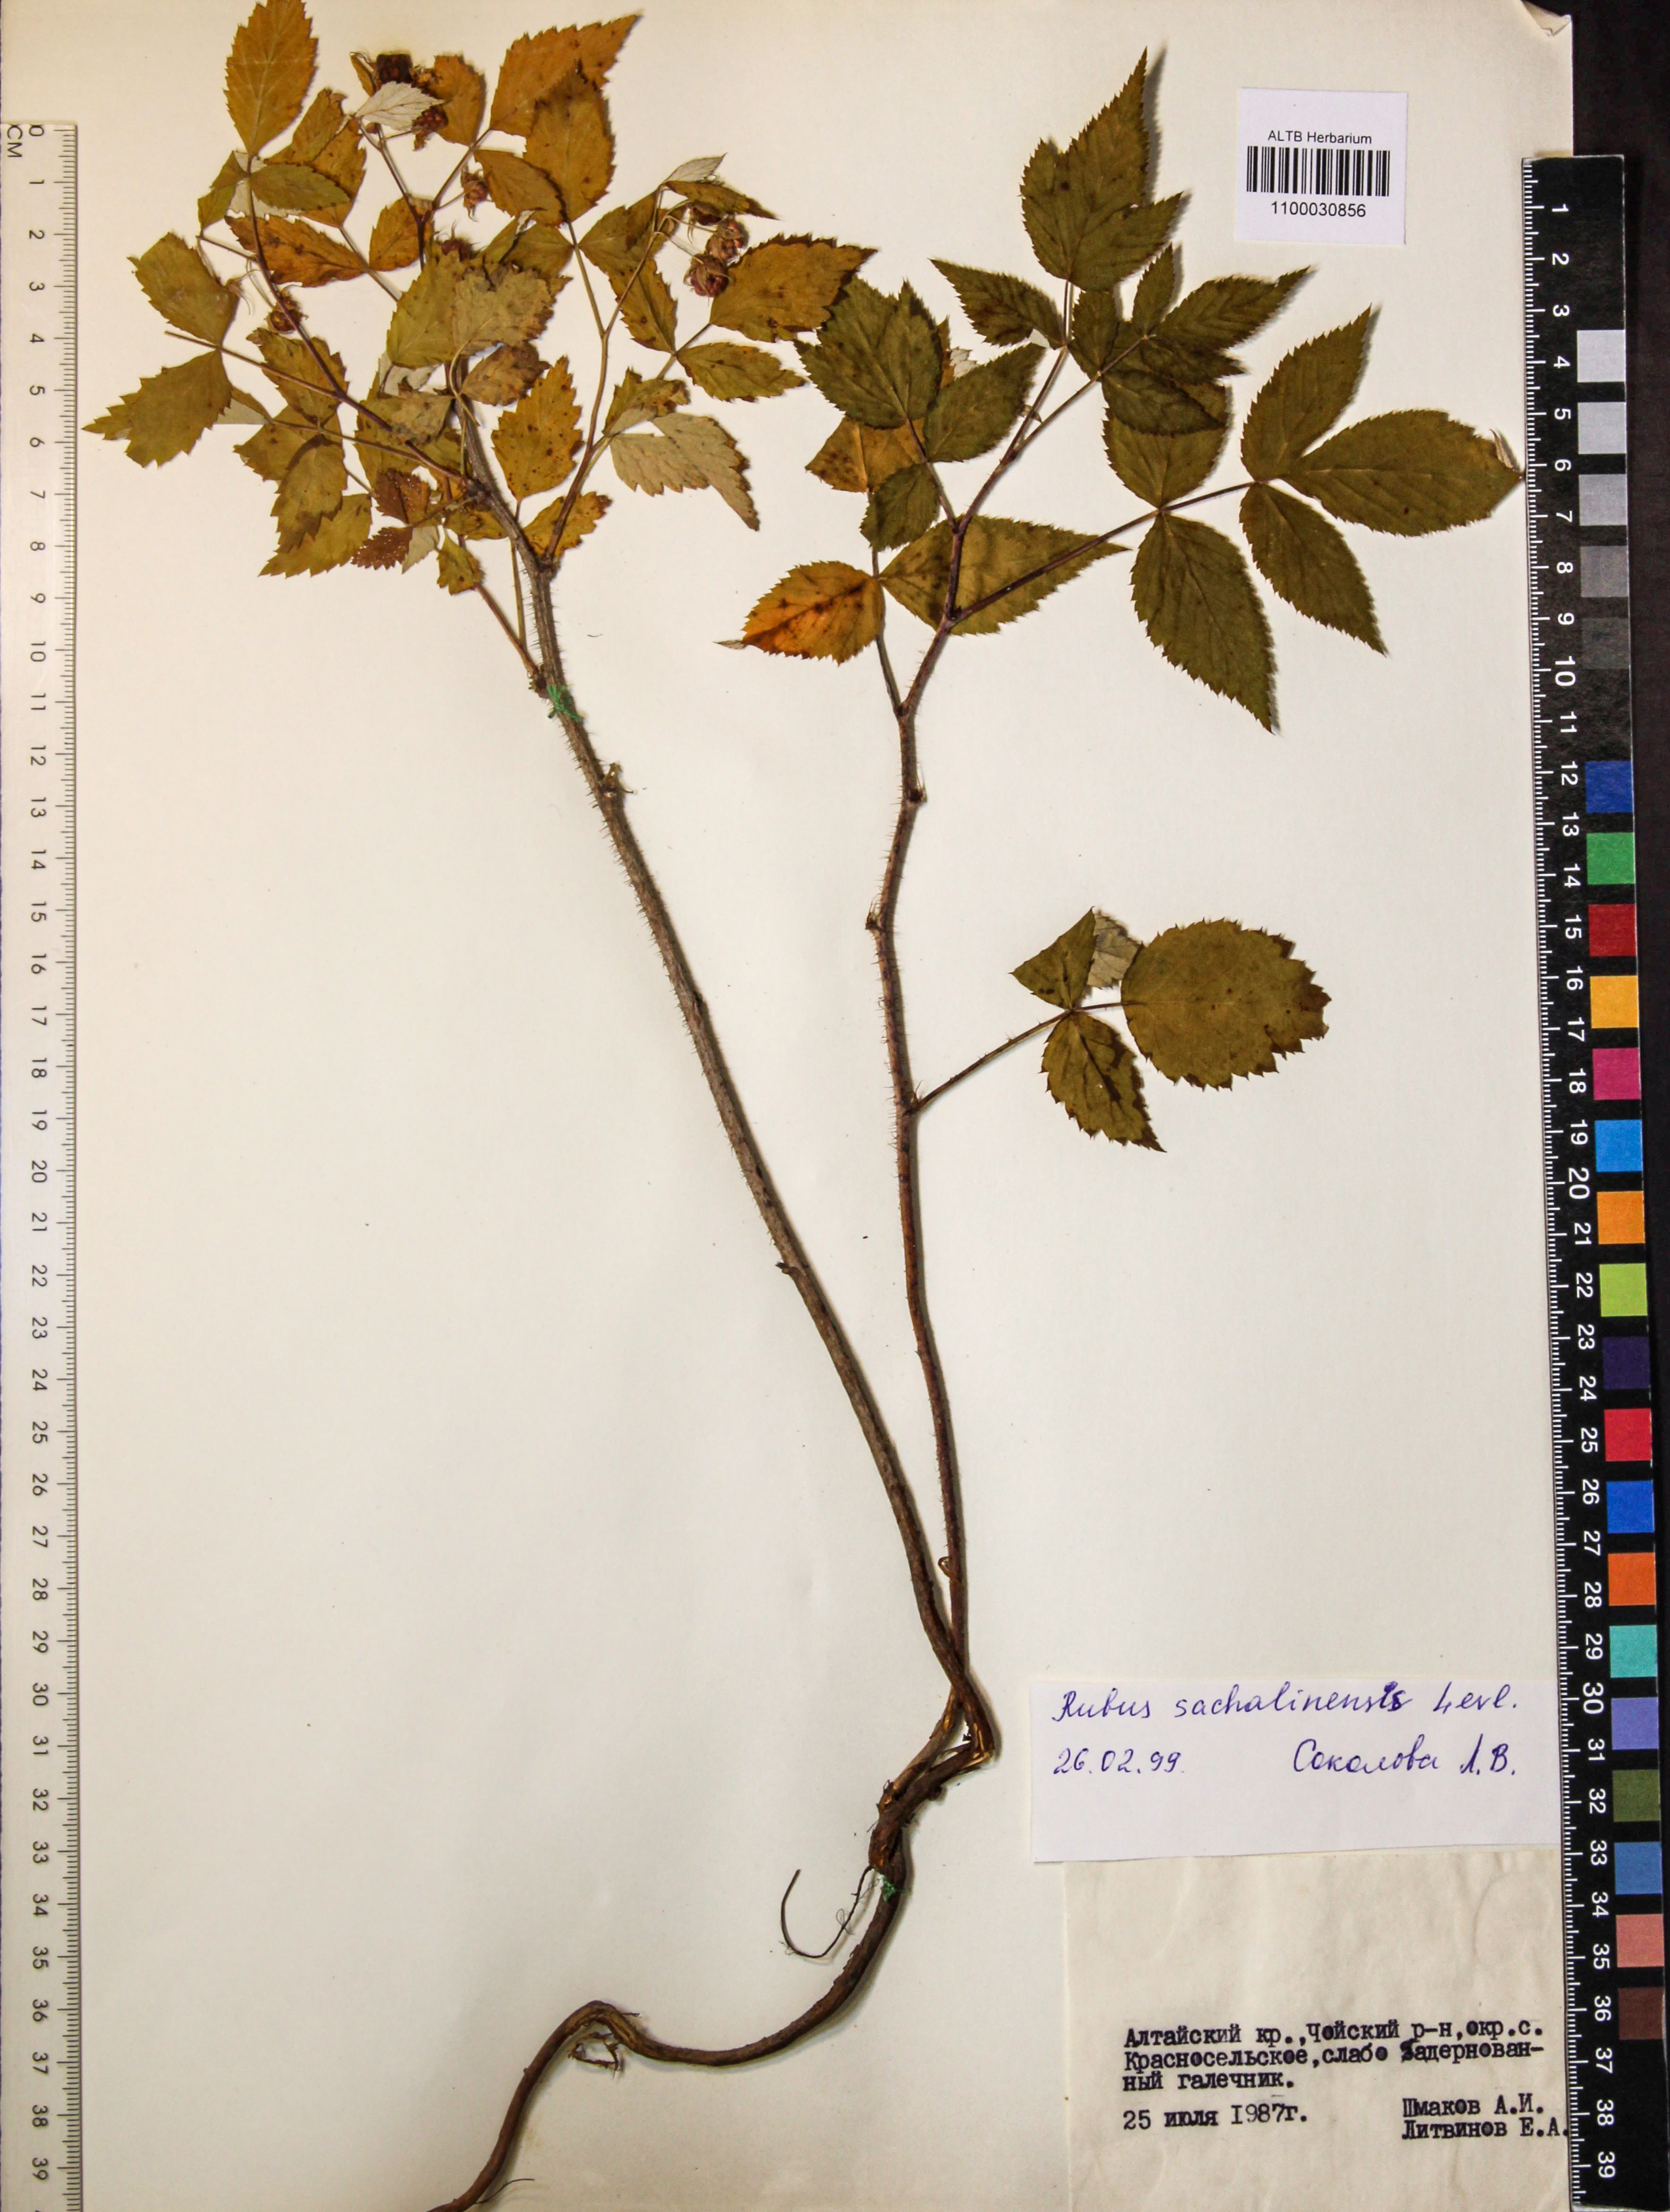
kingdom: Plantae
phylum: Tracheophyta
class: Magnoliopsida
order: Rosales
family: Rosaceae
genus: Rubus
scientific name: Rubus sachalinensis
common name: Red raspberry
